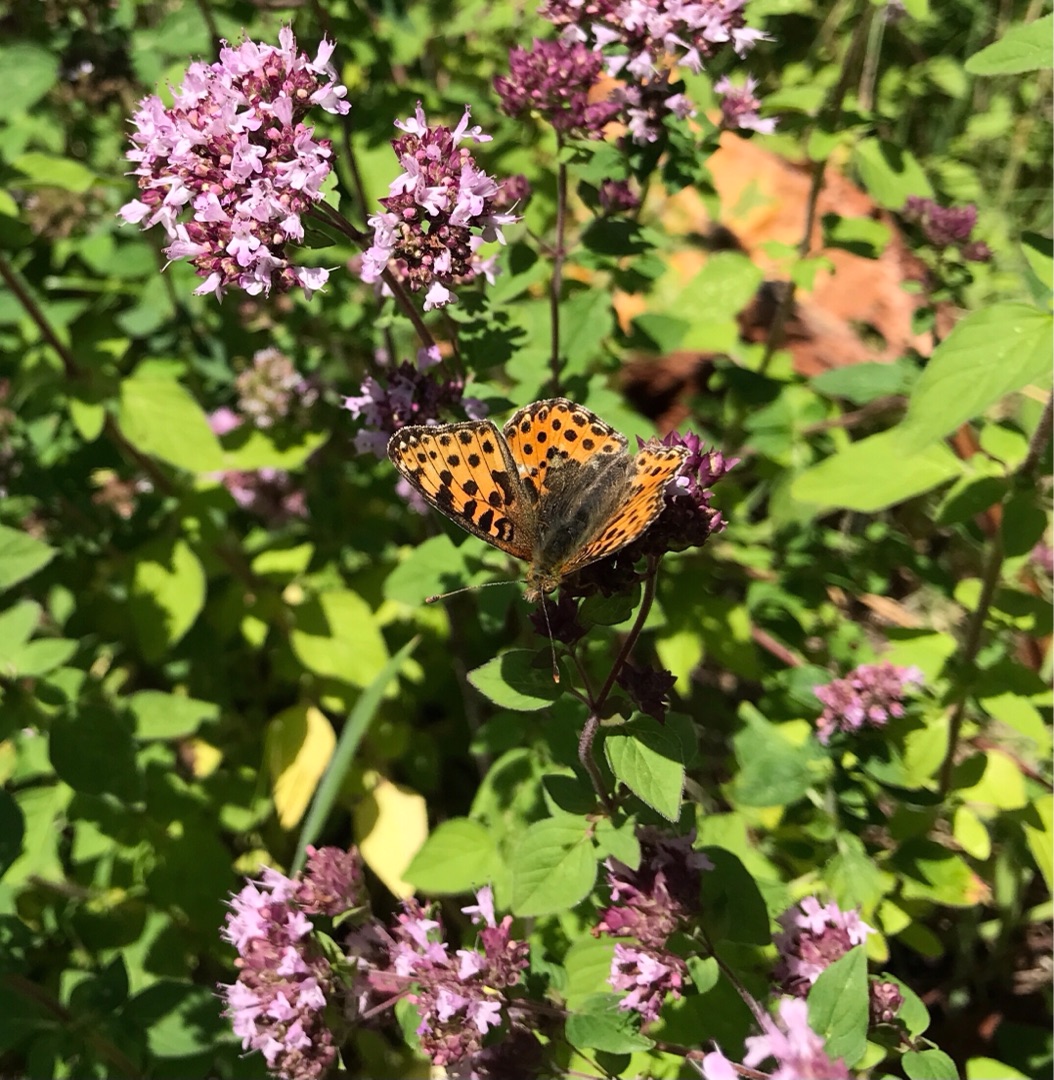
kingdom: Animalia
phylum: Arthropoda
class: Insecta
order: Lepidoptera
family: Nymphalidae
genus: Issoria
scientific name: Issoria lathonia
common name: Storplettet perlemorsommerfugl
